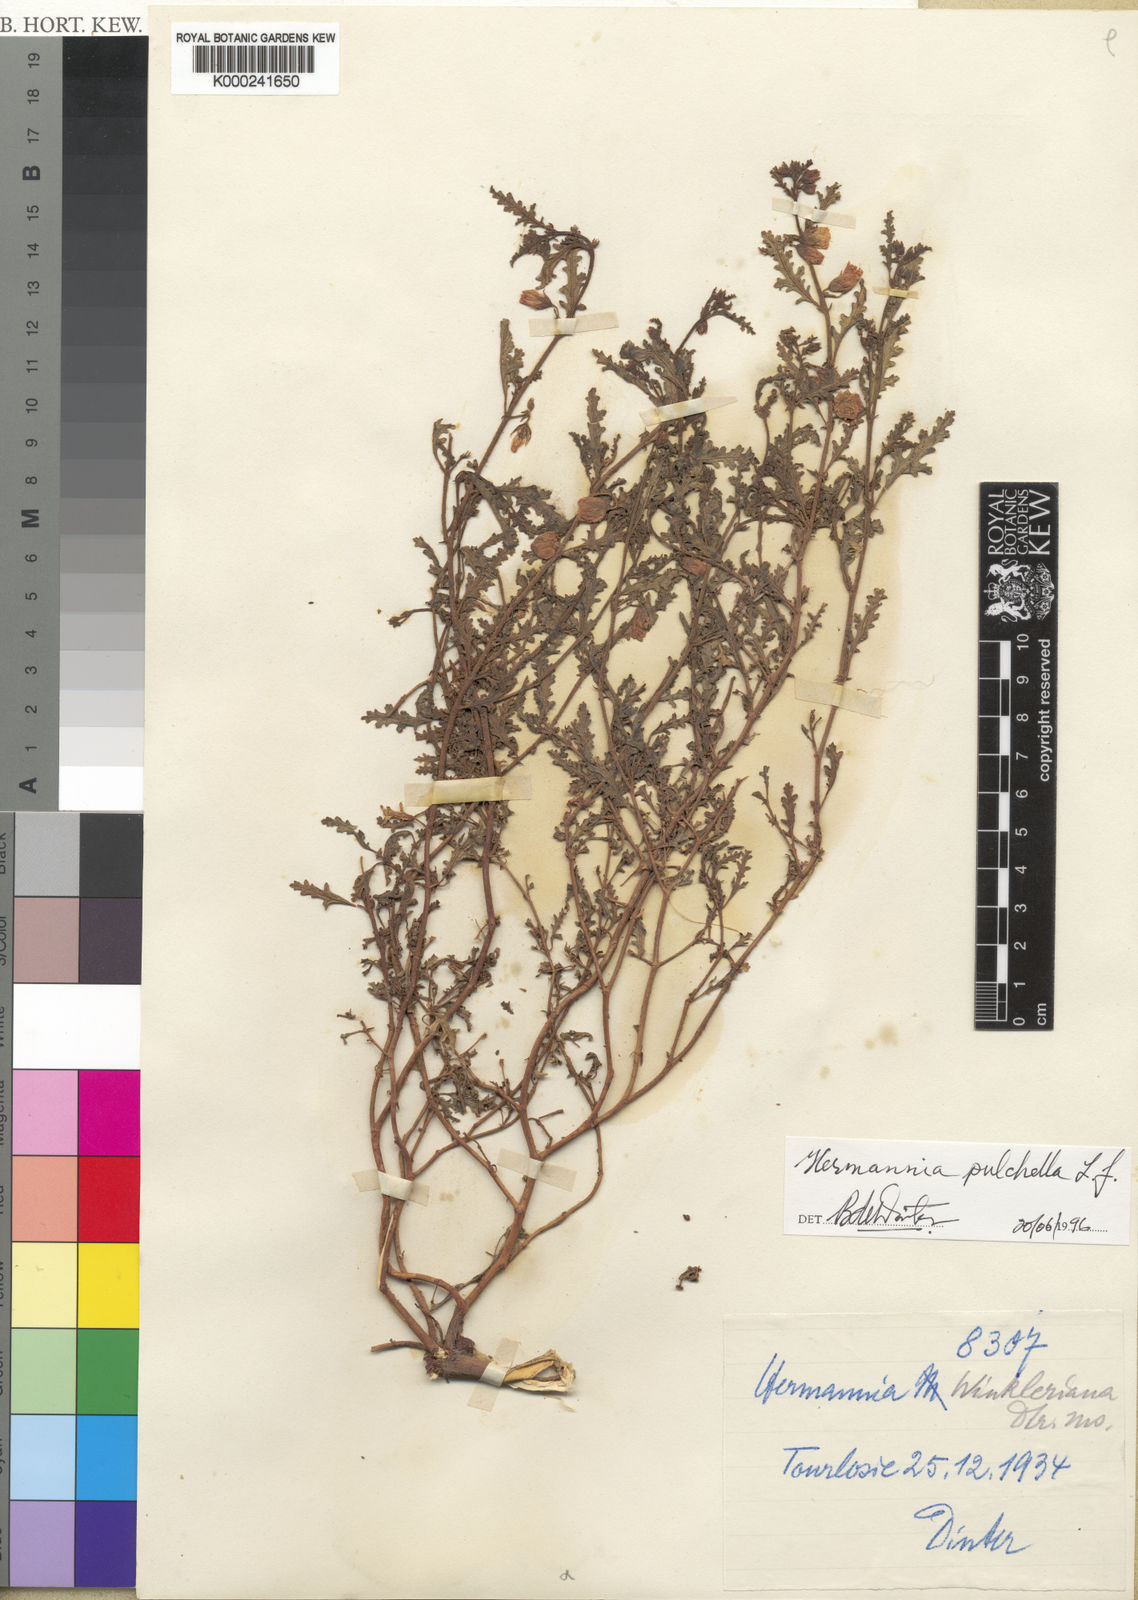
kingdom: Plantae
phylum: Tracheophyta
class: Magnoliopsida
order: Malvales
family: Malvaceae
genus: Hermannia
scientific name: Hermannia
